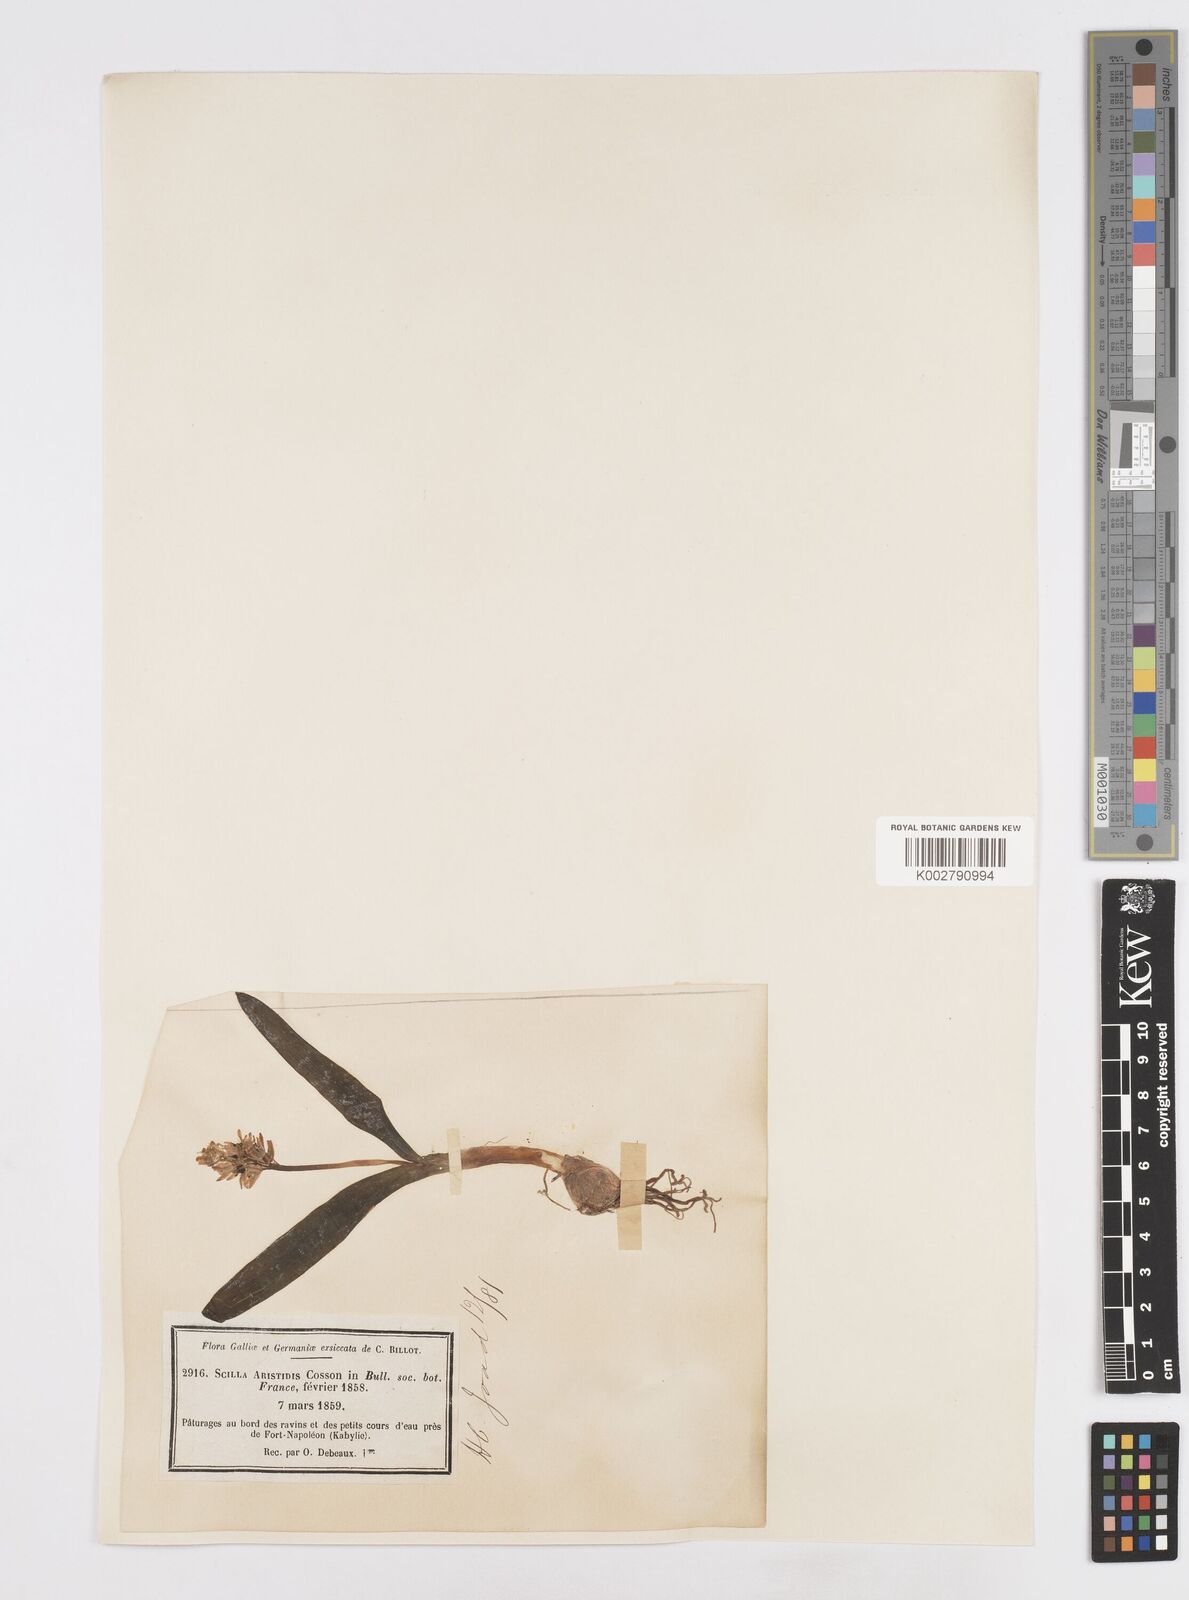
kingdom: Plantae
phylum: Tracheophyta
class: Liliopsida
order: Asparagales
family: Asparagaceae
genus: Hyacinthoides
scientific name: Hyacinthoides aristidis
